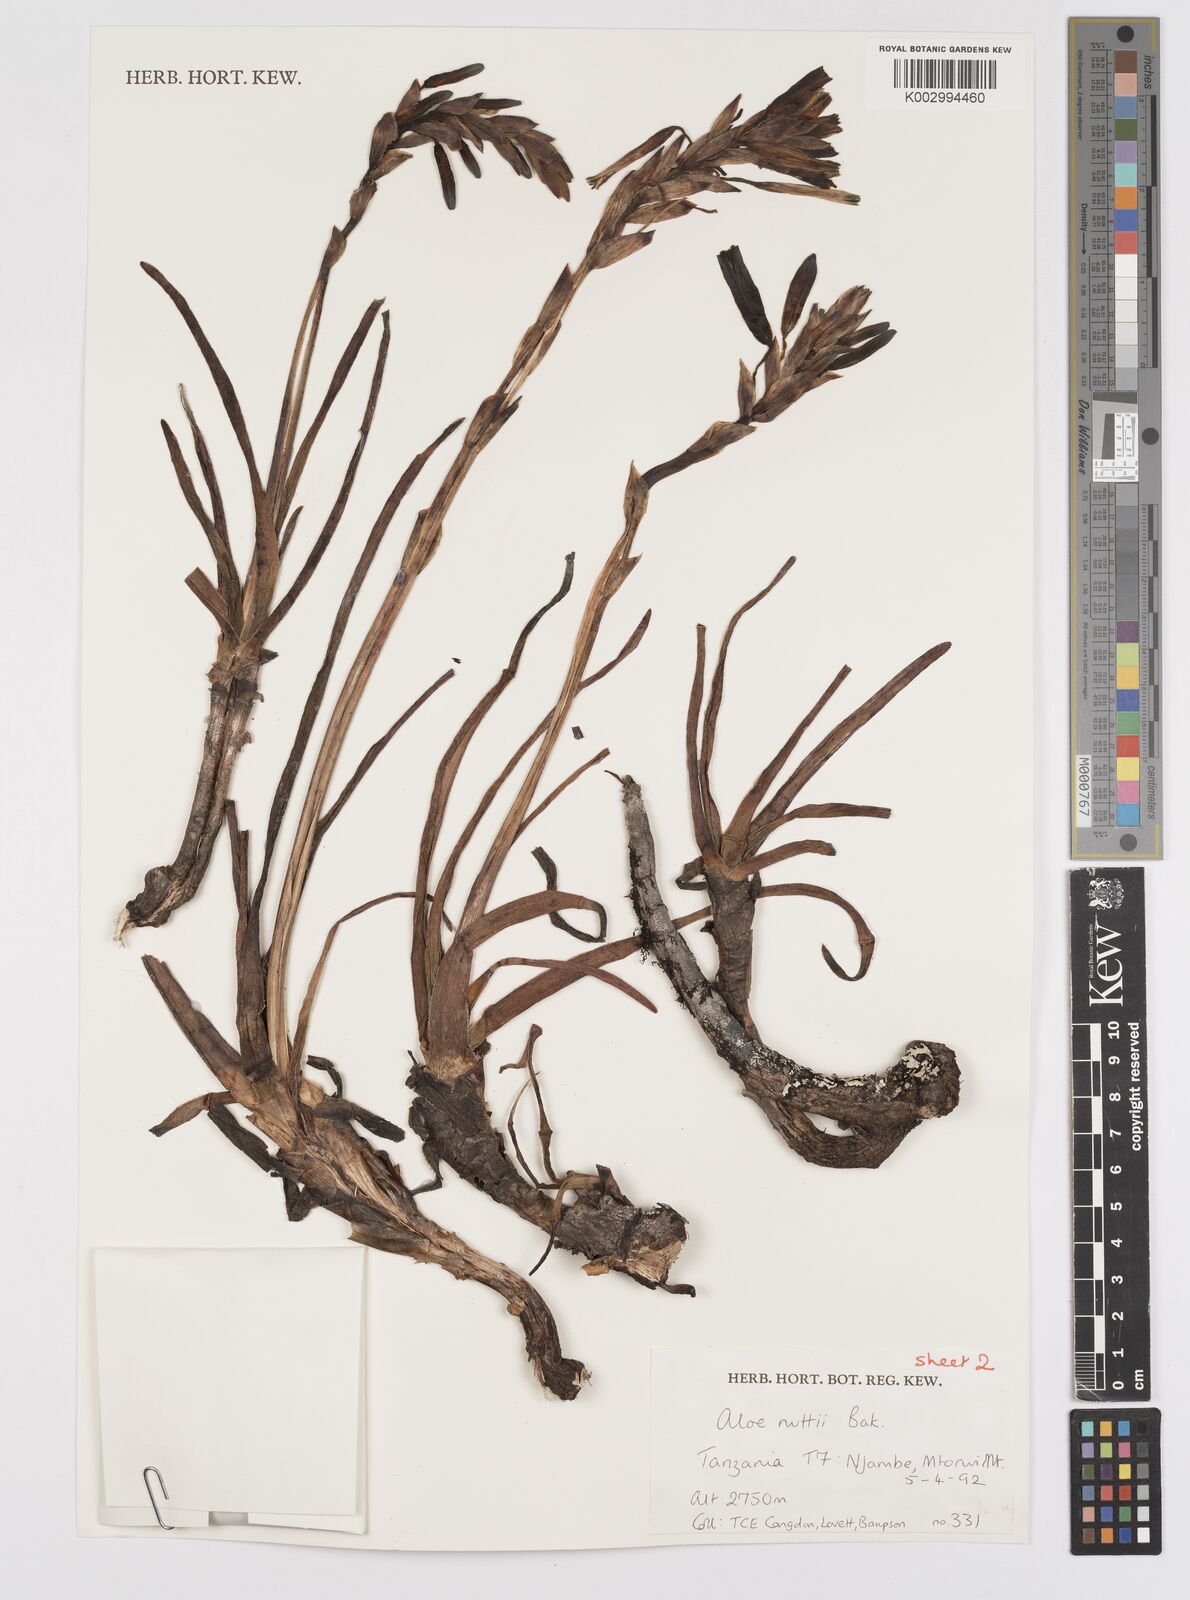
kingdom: Plantae
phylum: Tracheophyta
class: Liliopsida
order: Asparagales
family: Asphodelaceae
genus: Aloe
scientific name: Aloe nuttii
